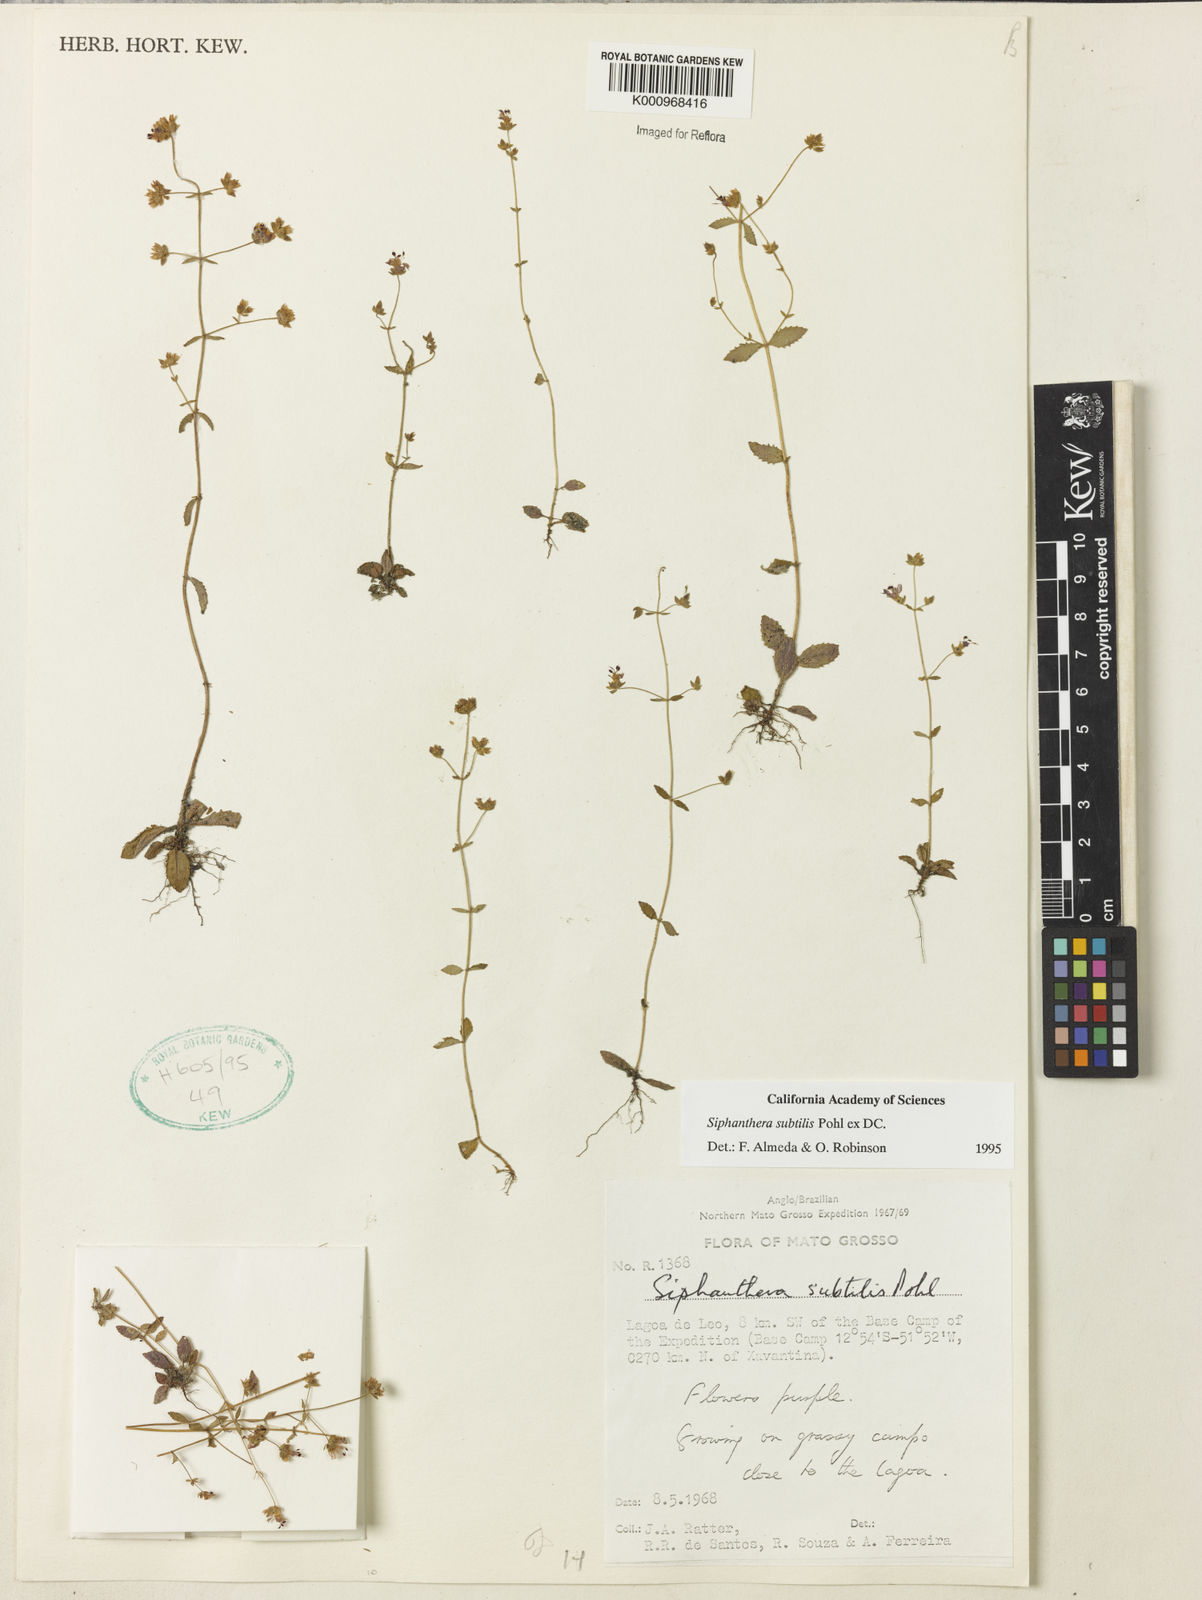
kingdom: Plantae
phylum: Tracheophyta
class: Magnoliopsida
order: Myrtales
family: Melastomataceae
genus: Siphanthera
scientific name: Siphanthera
